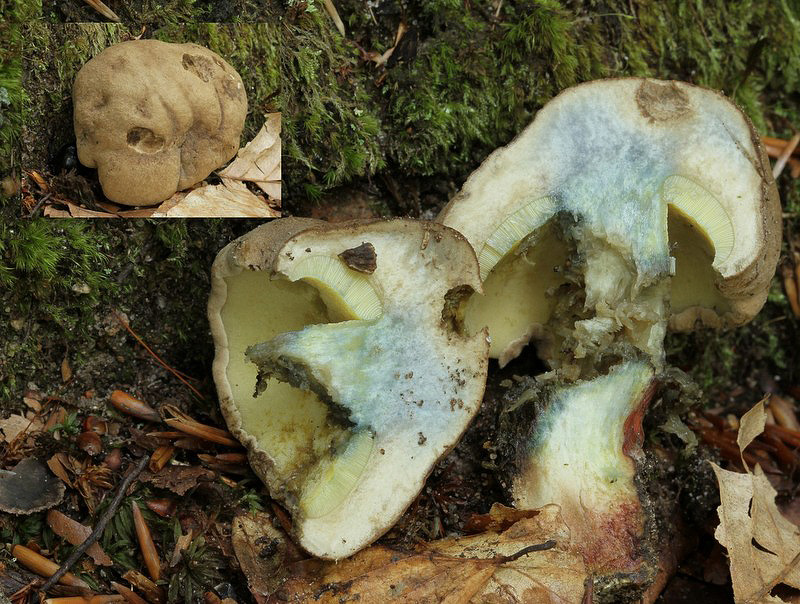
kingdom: Fungi
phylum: Basidiomycota
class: Agaricomycetes
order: Boletales
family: Boletaceae
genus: Caloboletus
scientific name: Caloboletus calopus
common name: skønfodet rørhat
